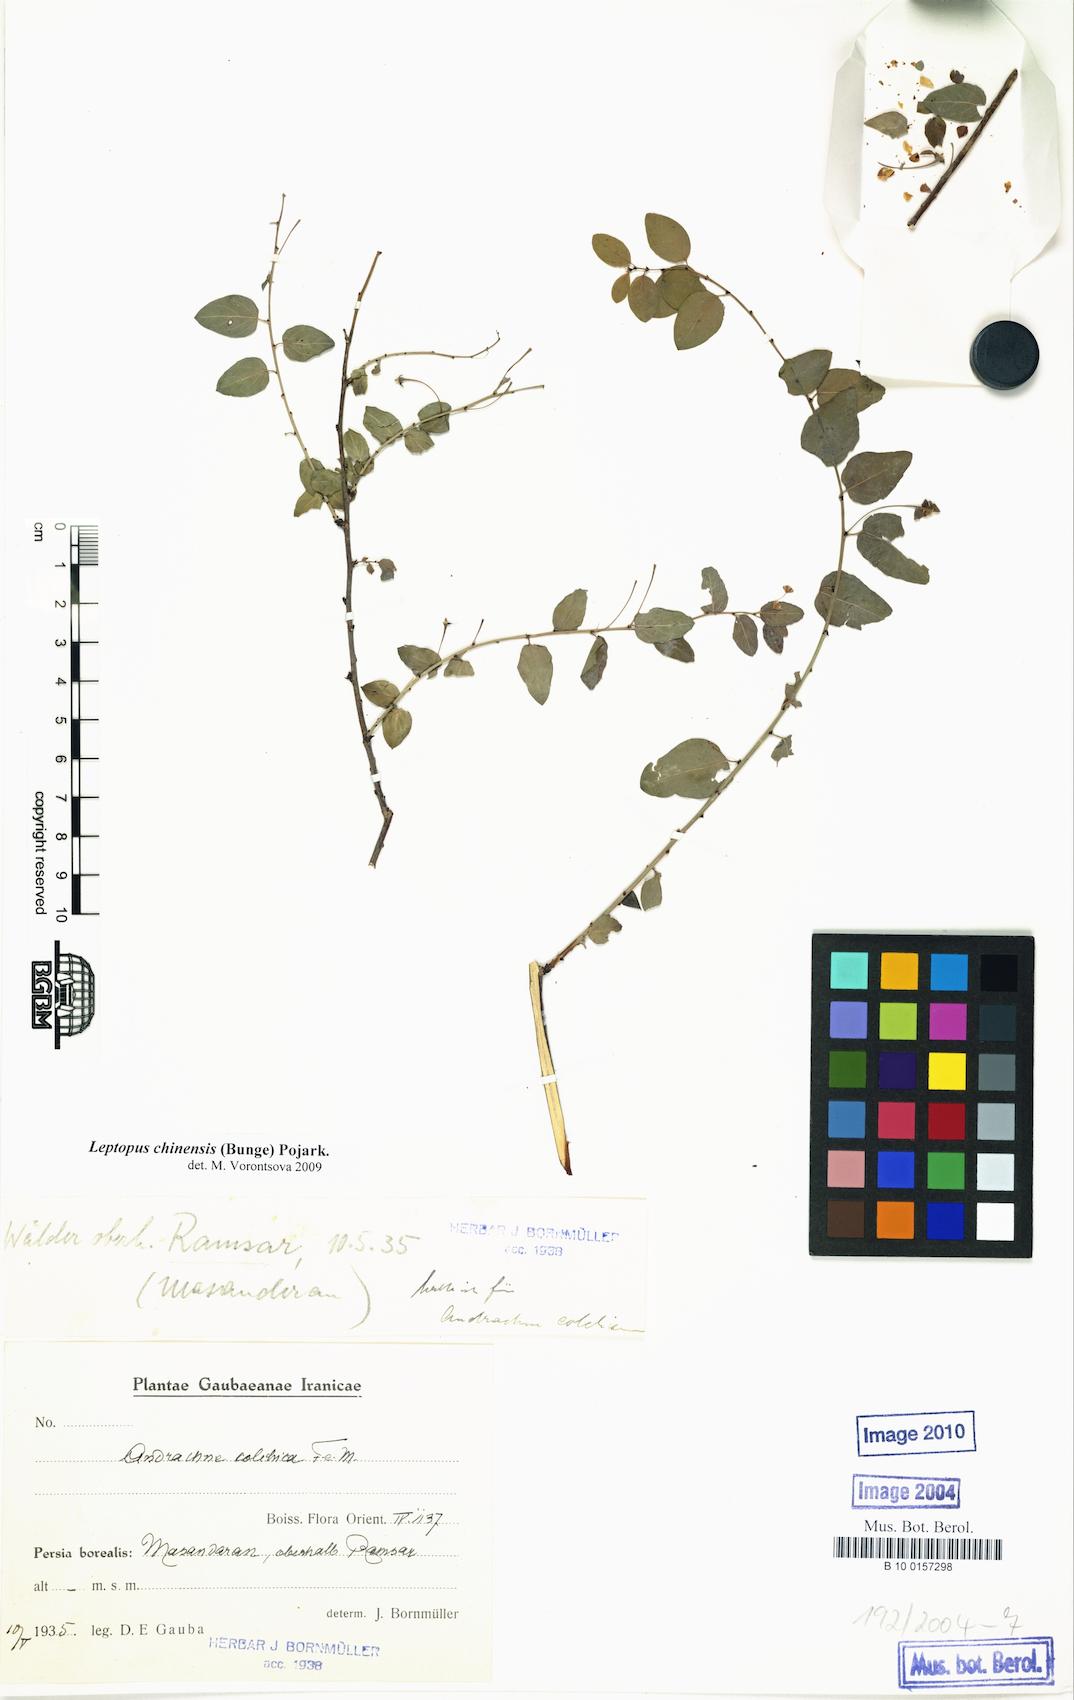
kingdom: Plantae
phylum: Tracheophyta
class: Magnoliopsida
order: Malpighiales
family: Phyllanthaceae
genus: Leptopus
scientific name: Leptopus chinensis
